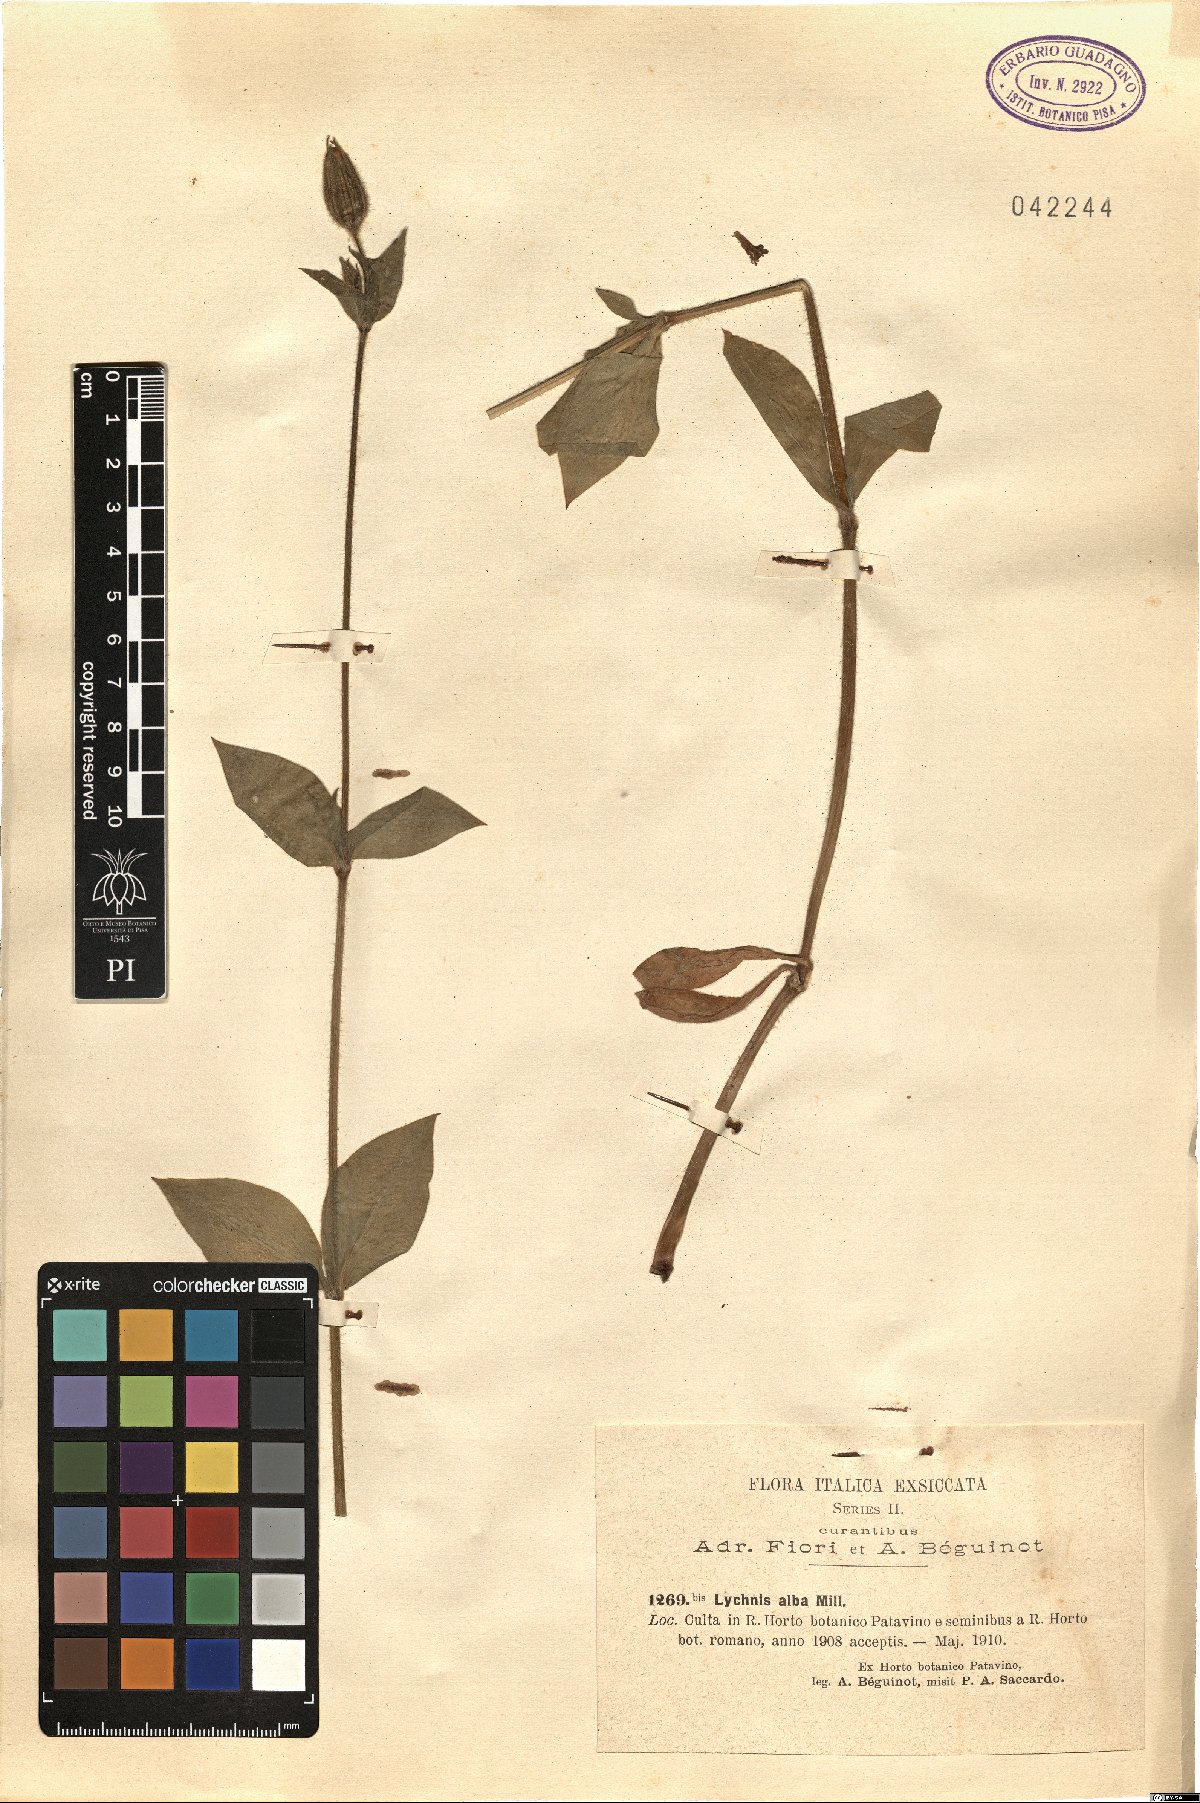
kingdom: Plantae
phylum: Tracheophyta
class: Magnoliopsida
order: Caryophyllales
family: Caryophyllaceae
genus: Silene
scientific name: Silene latifolia
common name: White campion
